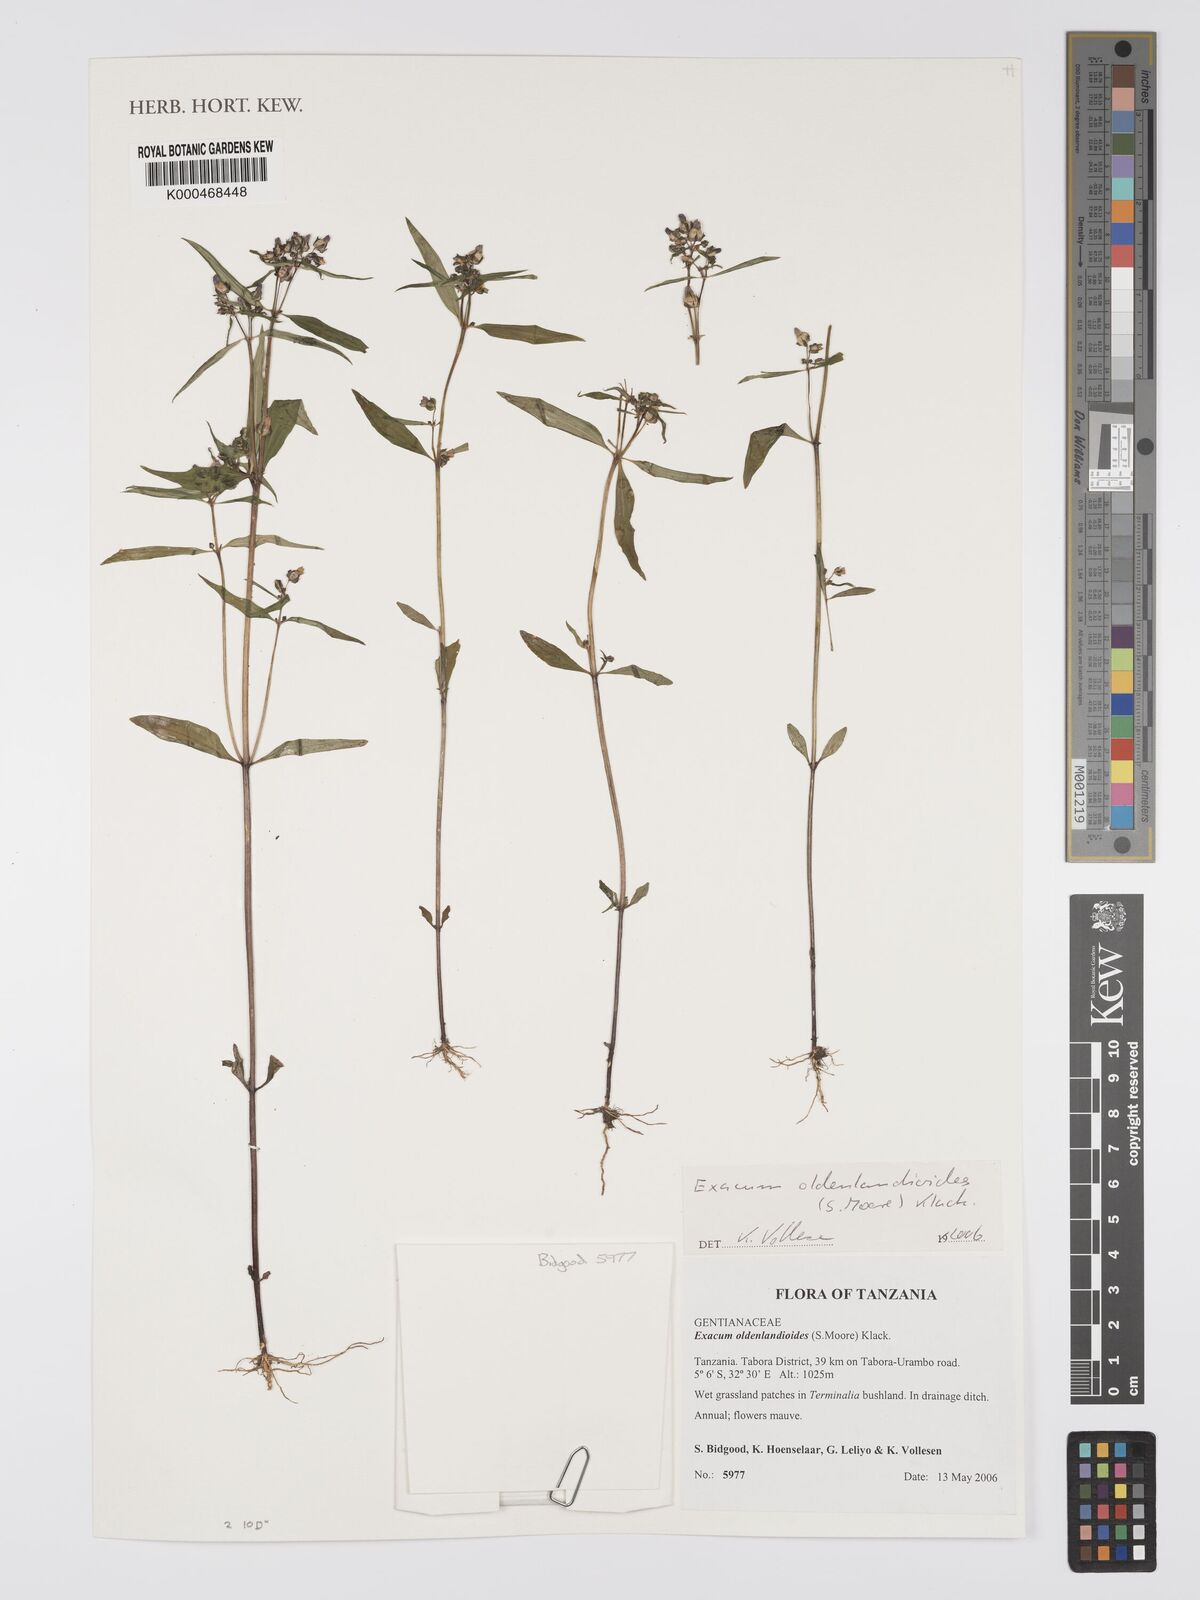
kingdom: Plantae
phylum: Tracheophyta
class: Magnoliopsida
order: Gentianales
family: Gentianaceae
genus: Exacum
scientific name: Exacum oldenlandioides
